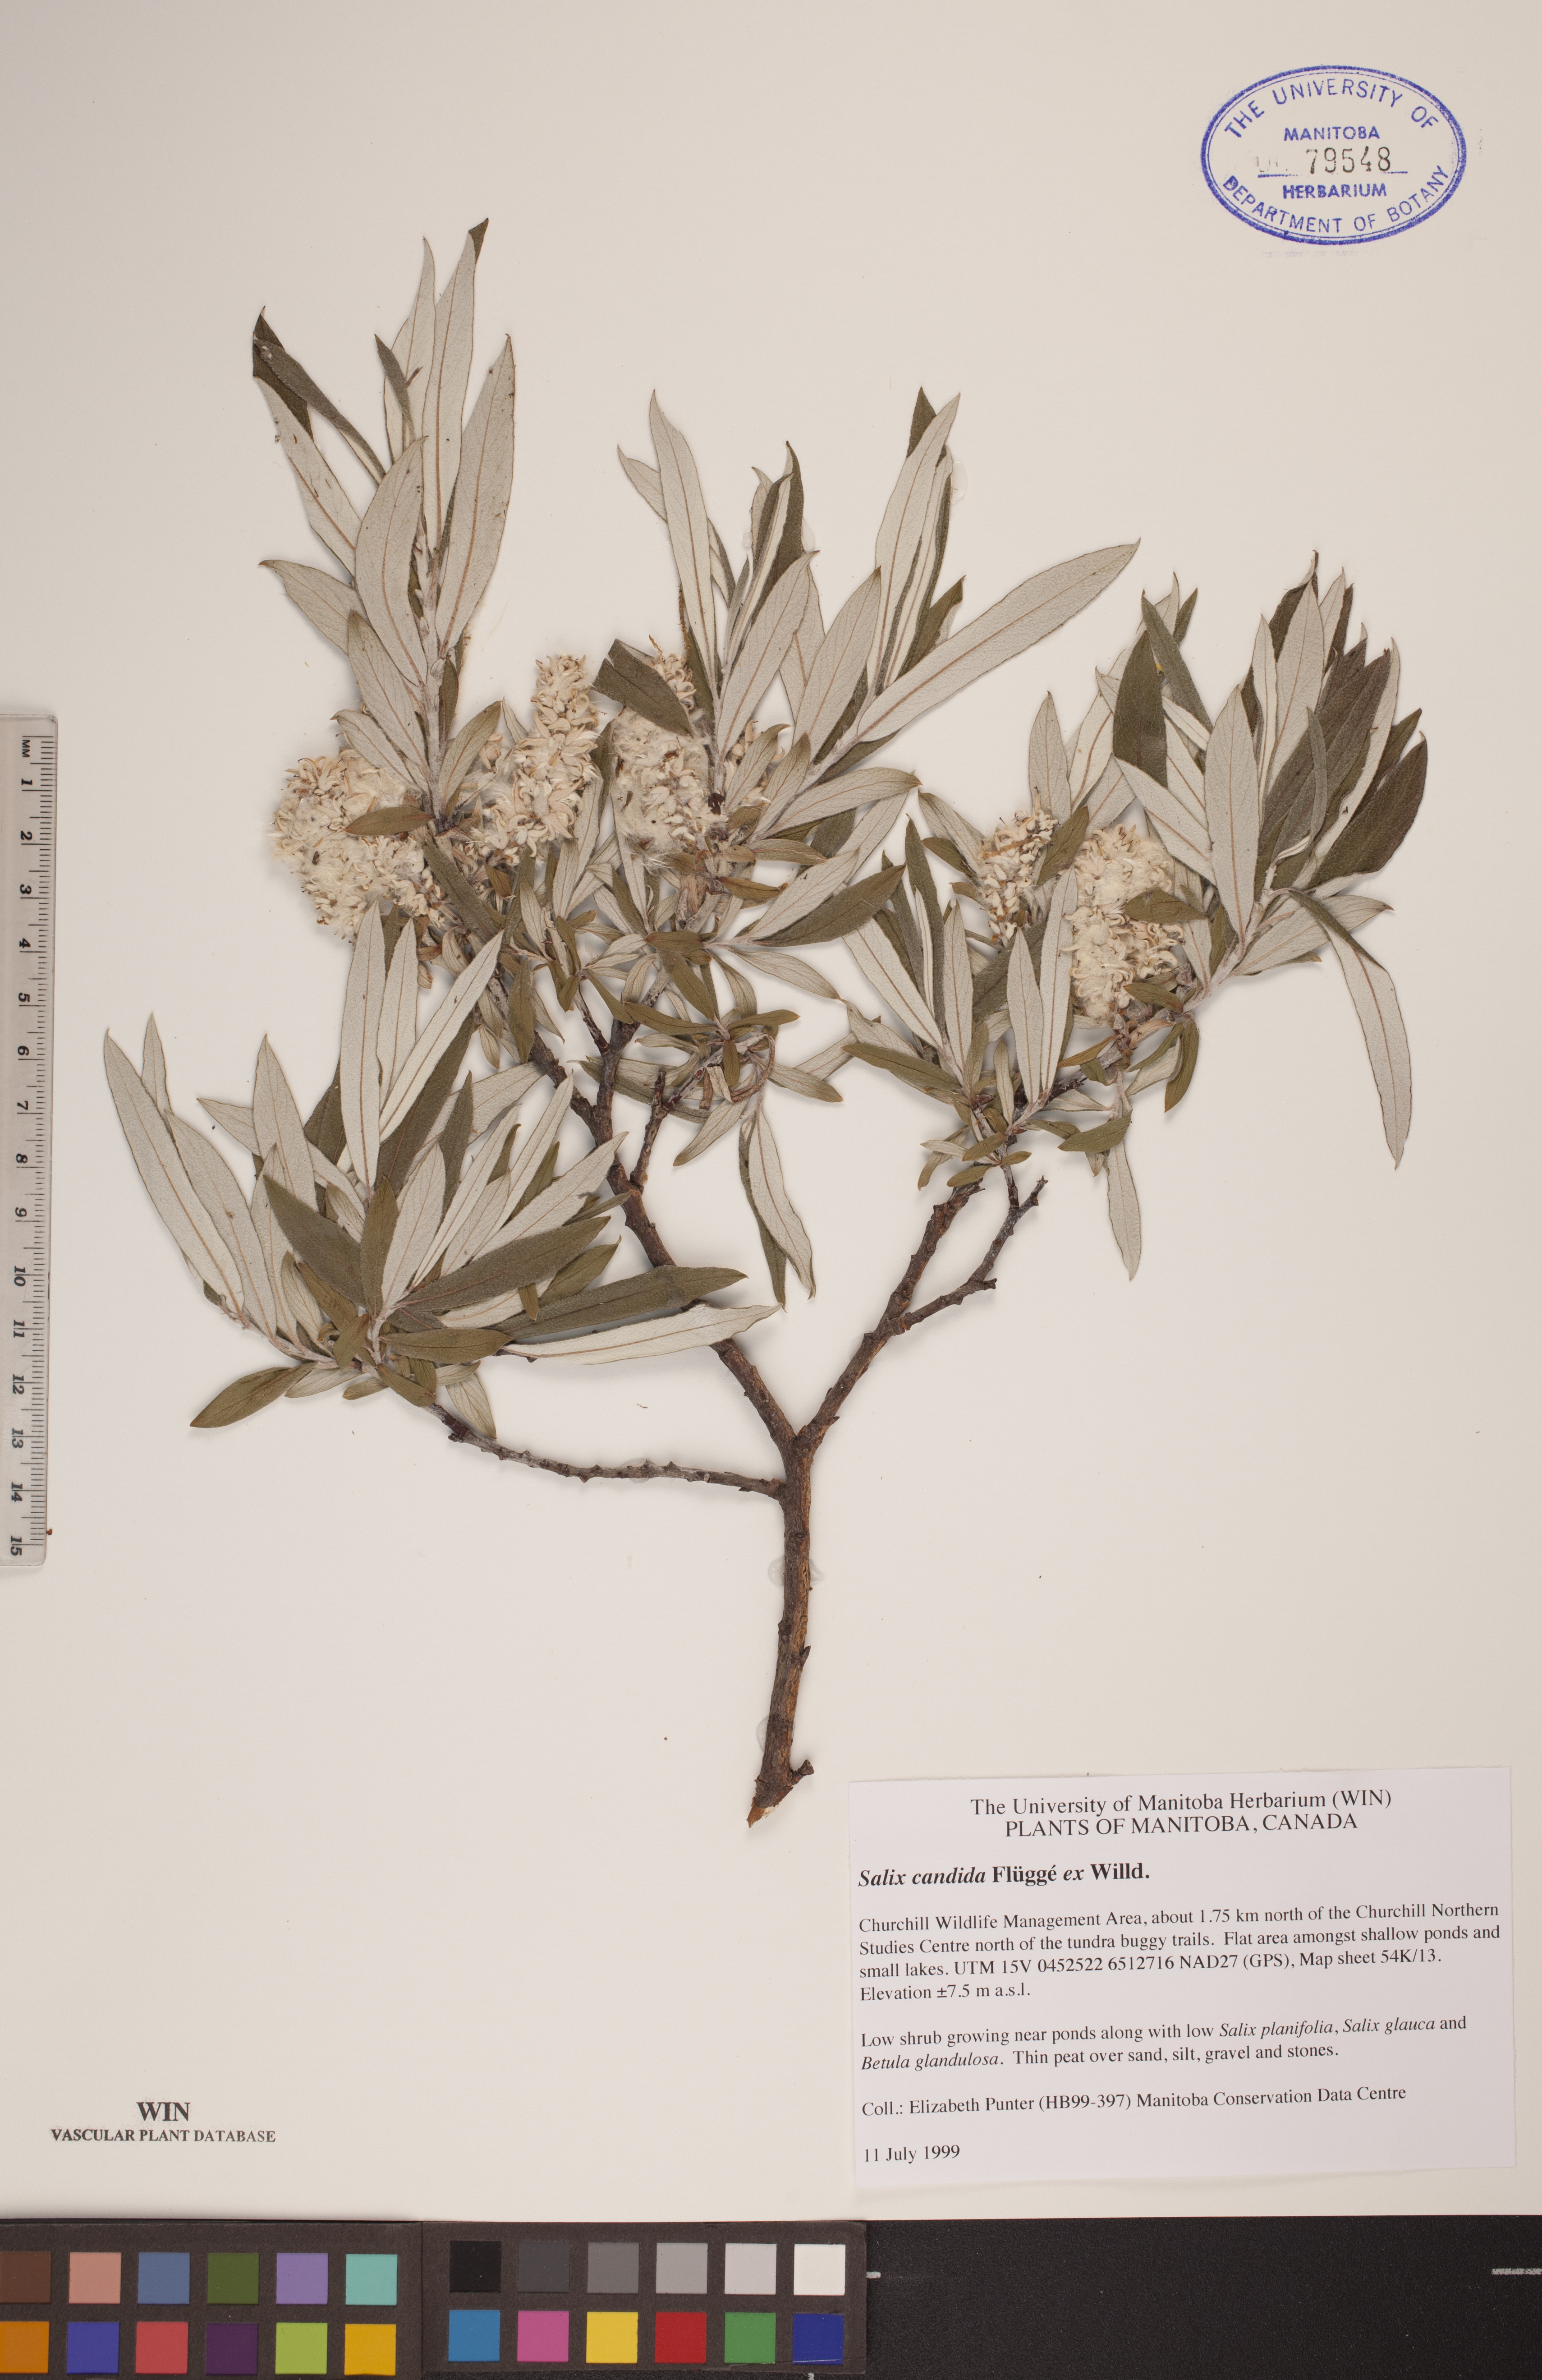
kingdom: Plantae
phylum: Tracheophyta
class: Magnoliopsida
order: Malpighiales
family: Salicaceae
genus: Salix
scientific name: Salix candida
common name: Hoary willow
